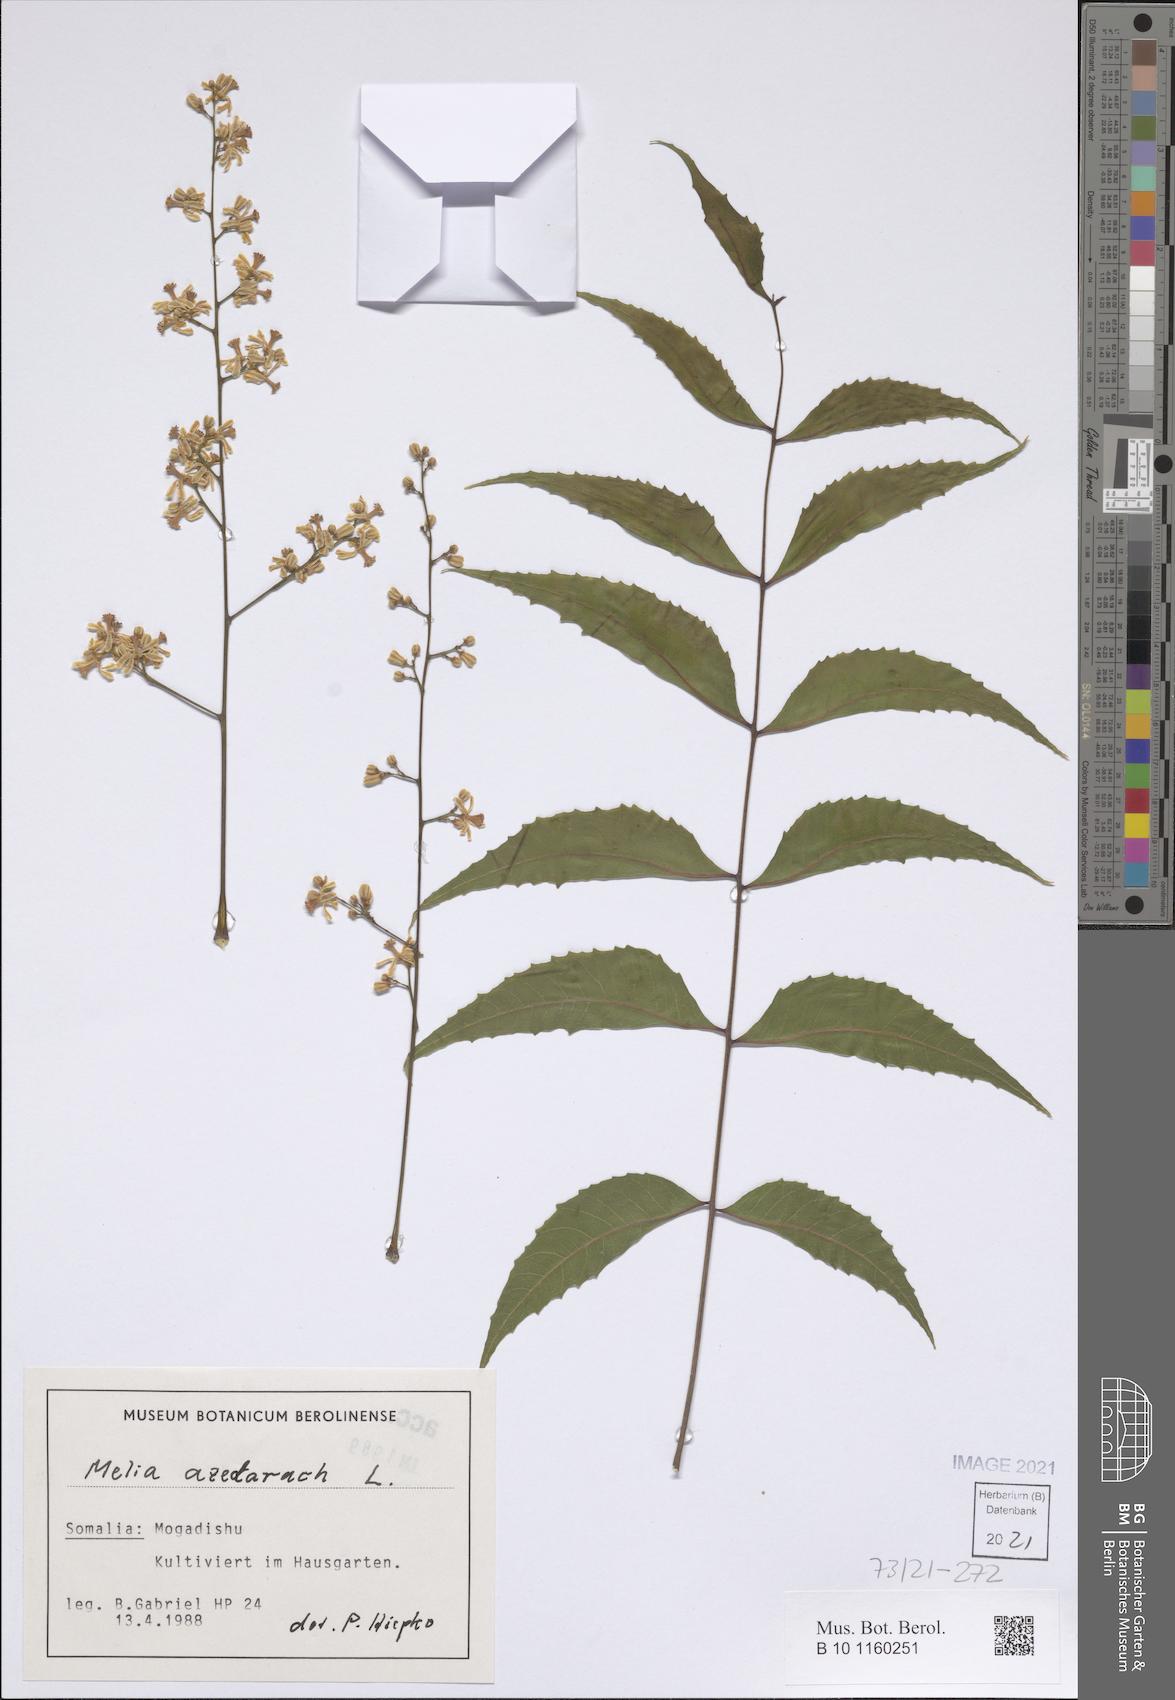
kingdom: Plantae
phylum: Tracheophyta
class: Magnoliopsida
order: Sapindales
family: Meliaceae
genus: Melia
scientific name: Melia azedarach
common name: Chinaberrytree
